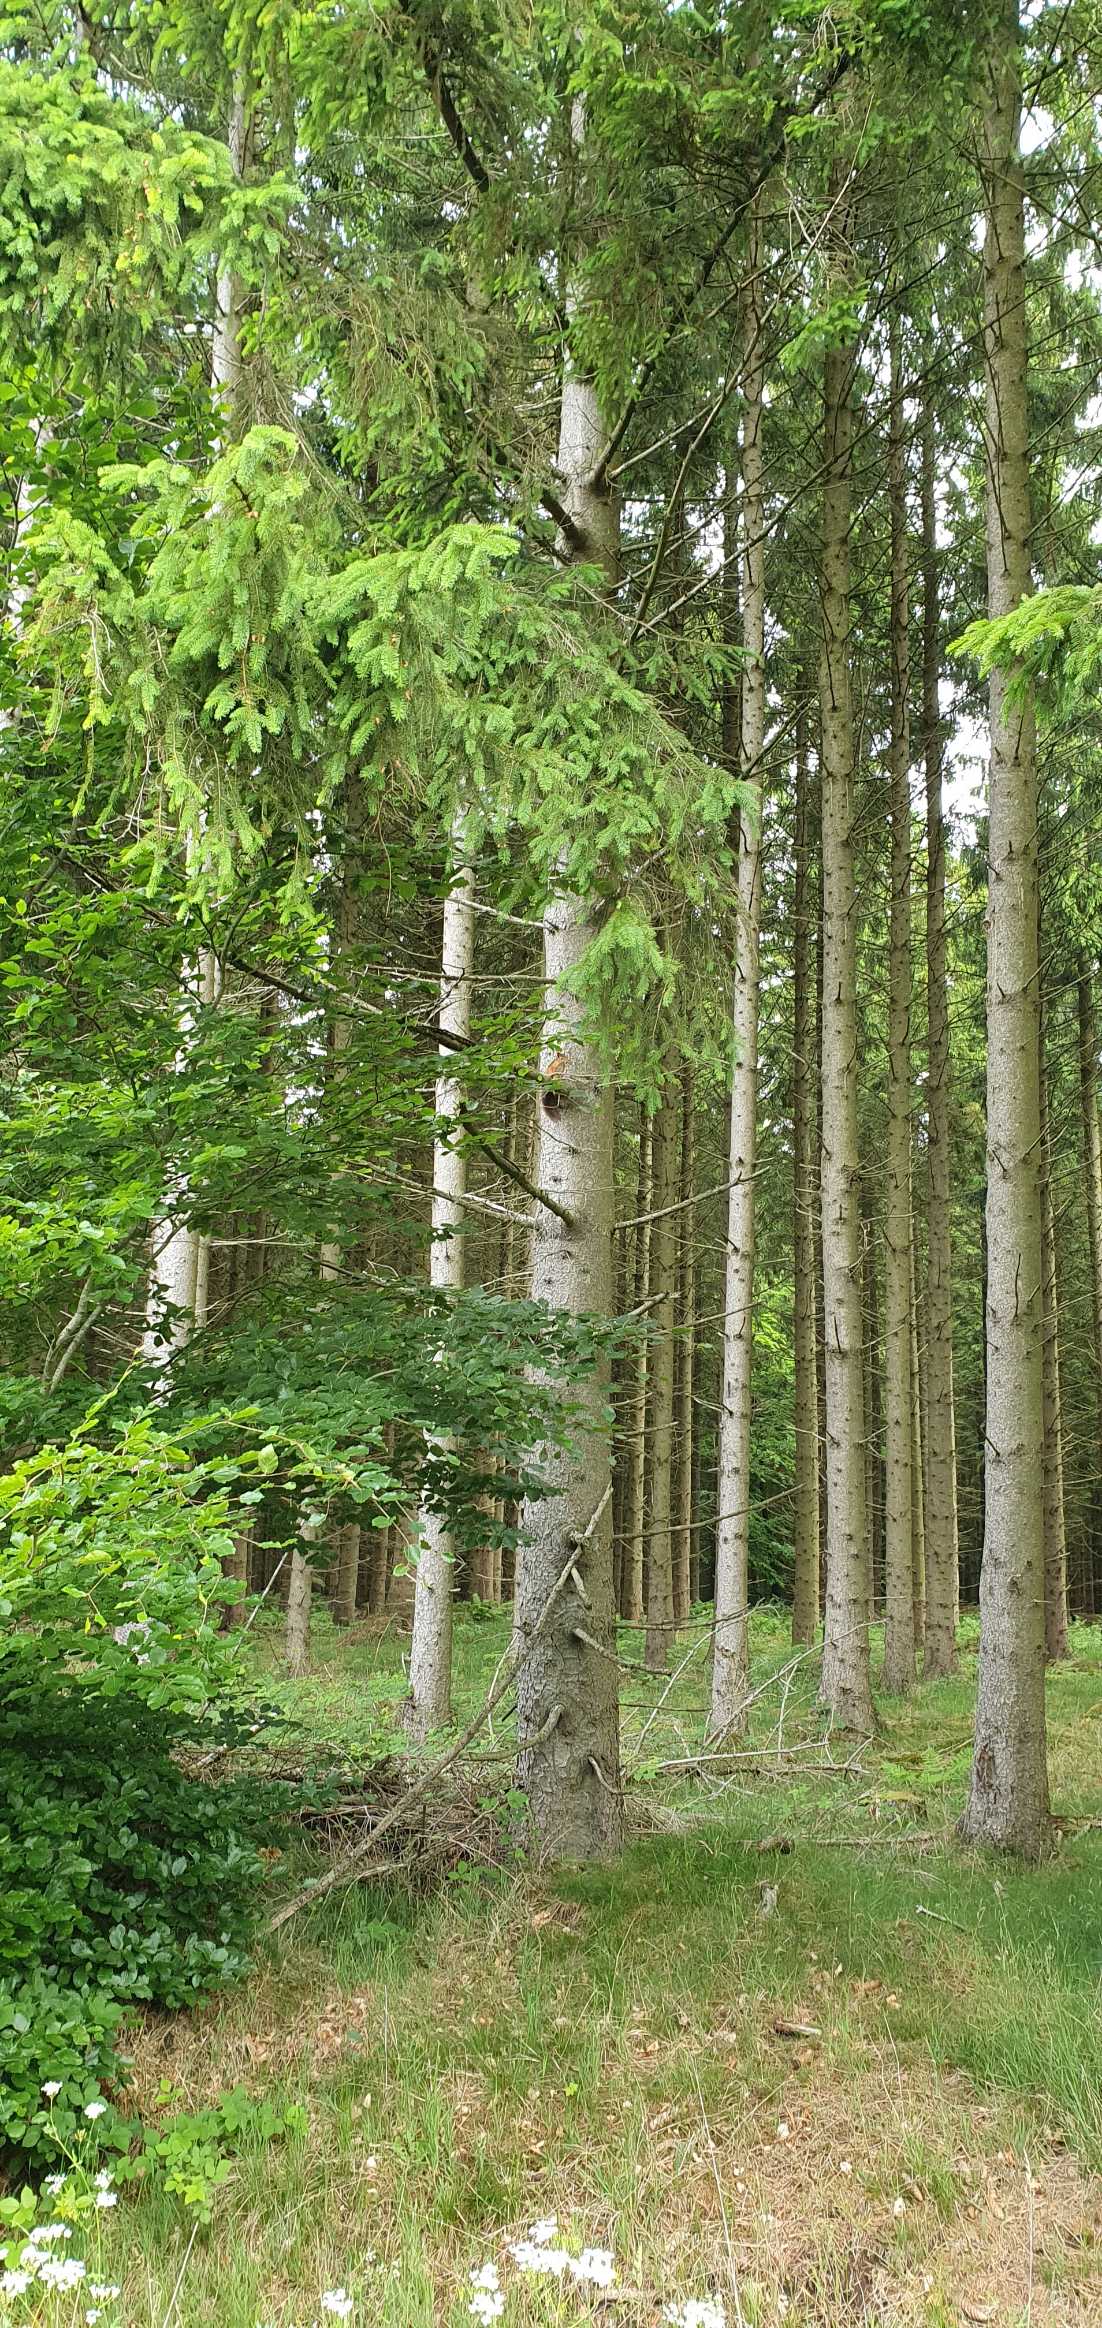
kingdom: Animalia
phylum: Chordata
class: Mammalia
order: Rodentia
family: Sciuridae
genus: Sciurus
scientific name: Sciurus vulgaris
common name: Egern
